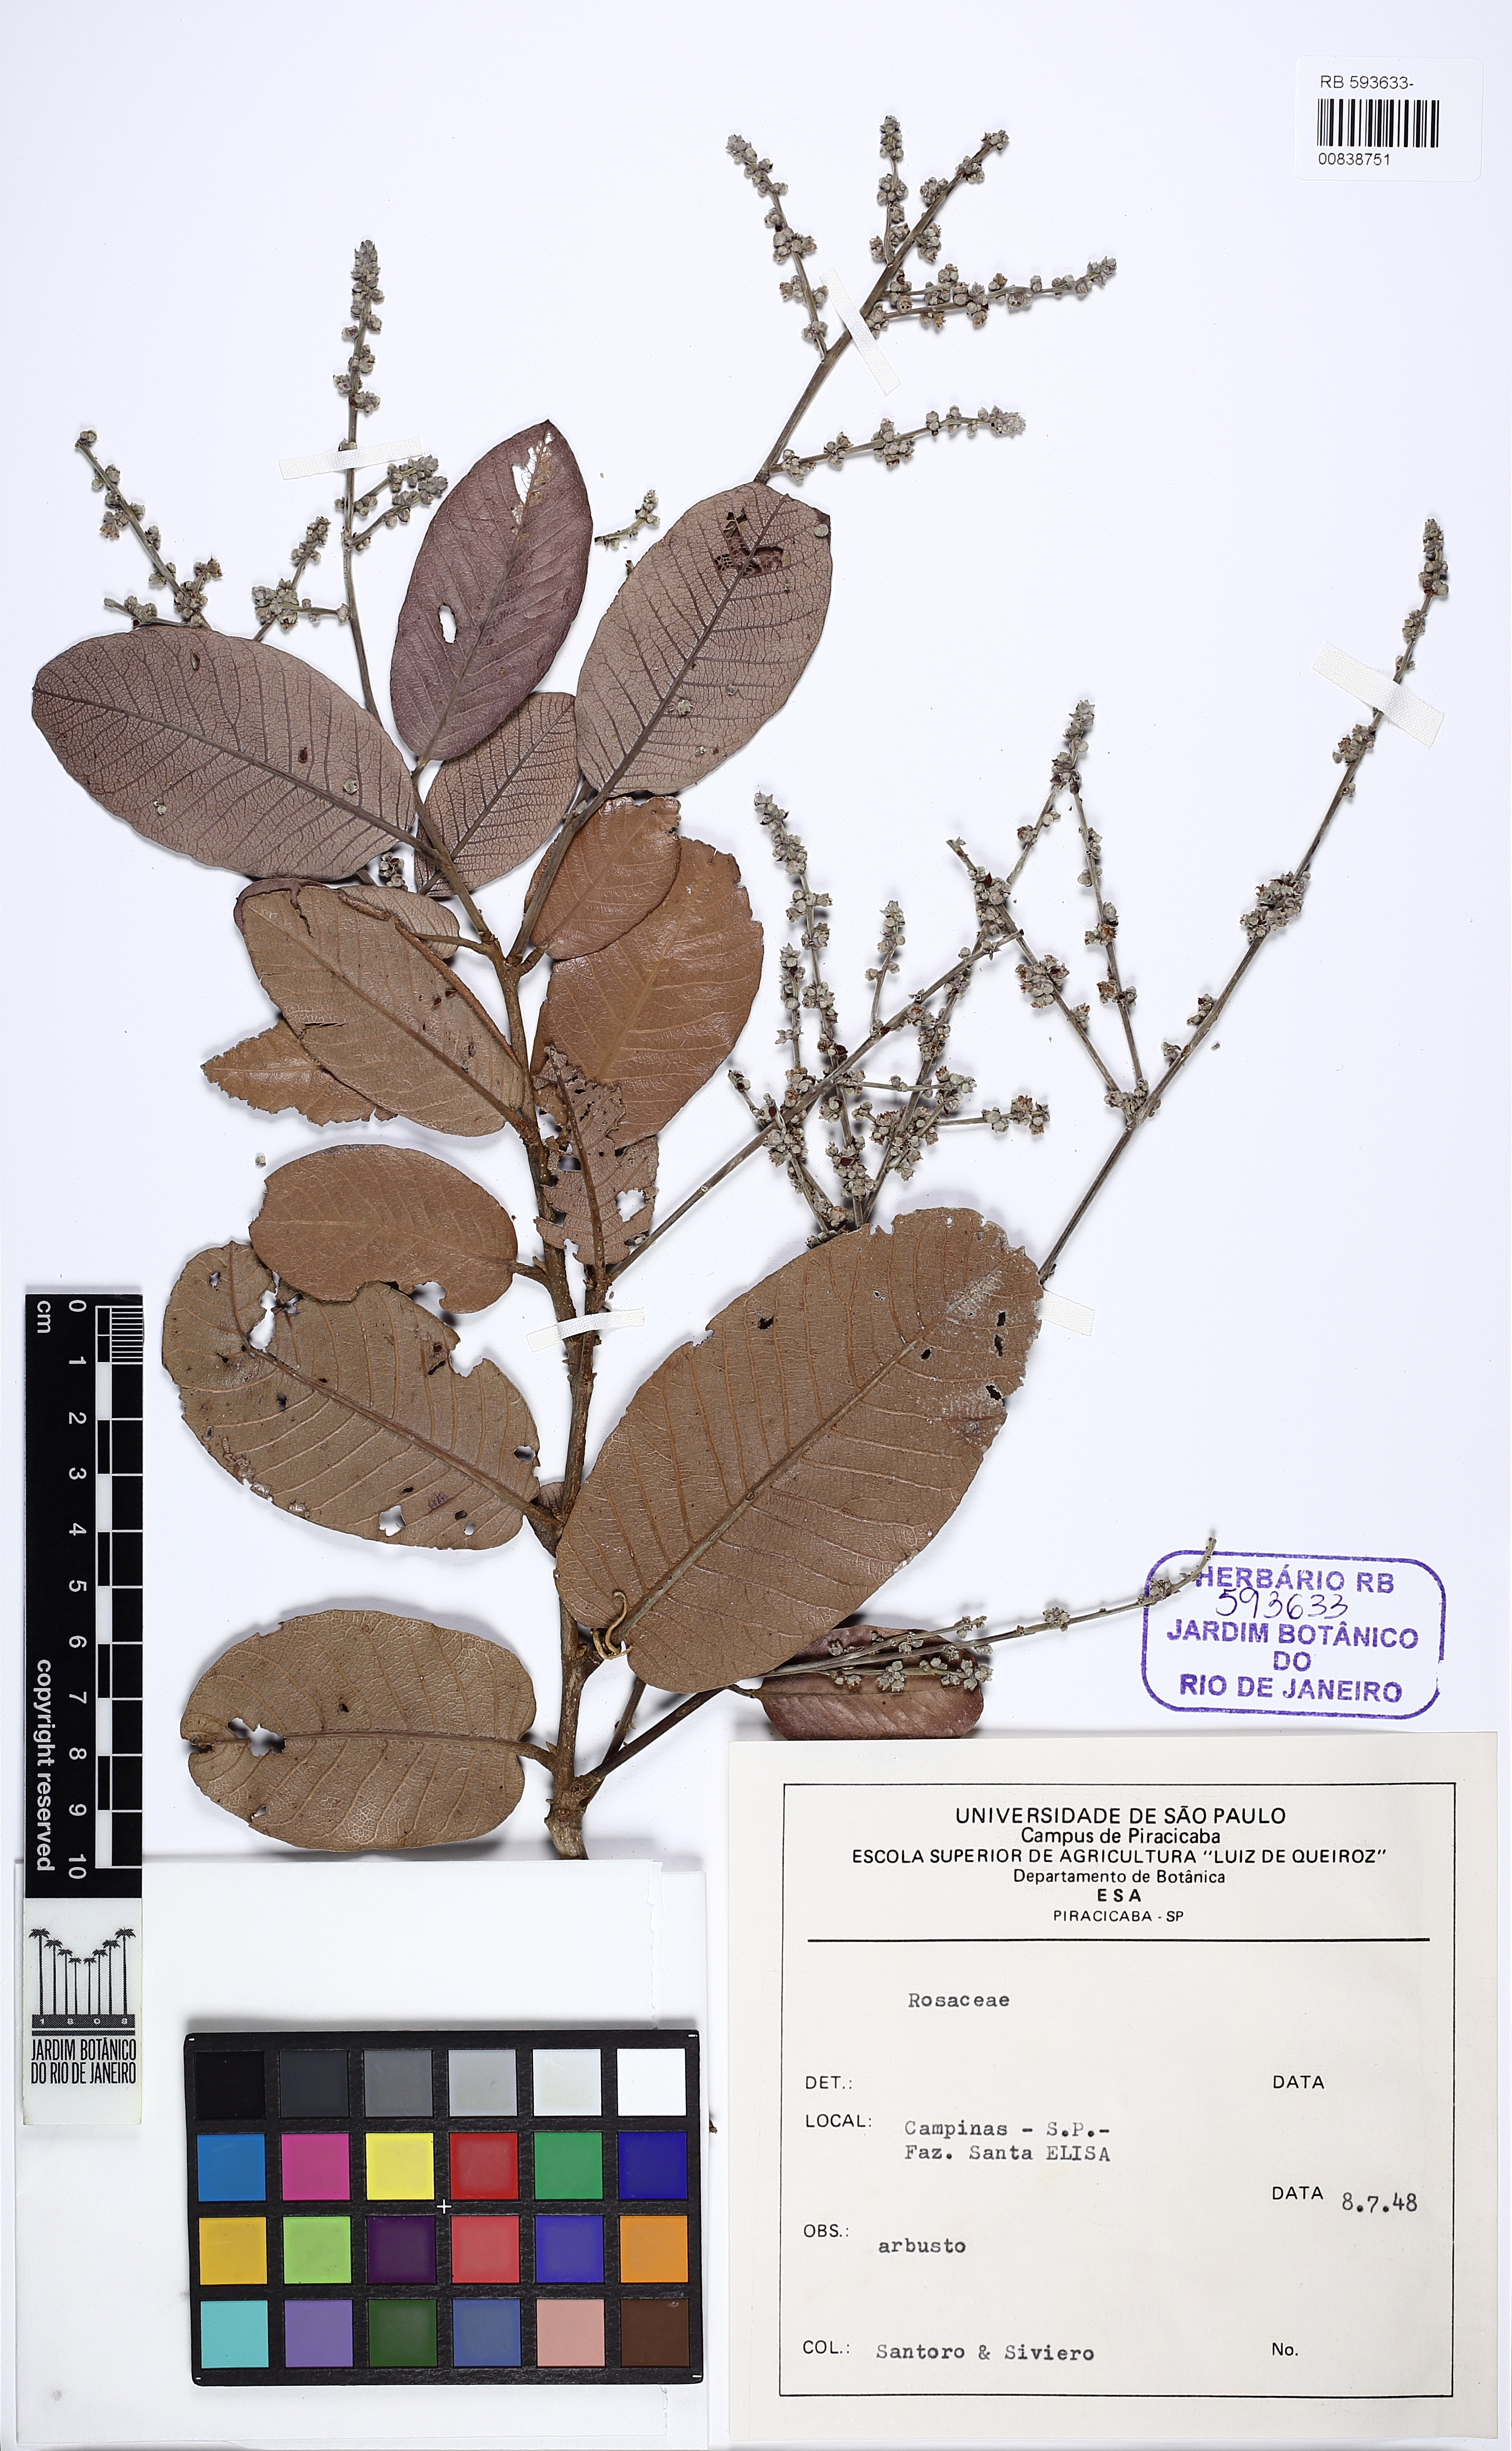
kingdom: Plantae
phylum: Tracheophyta
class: Magnoliopsida
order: Rosales
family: Rosaceae
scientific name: Rosaceae
